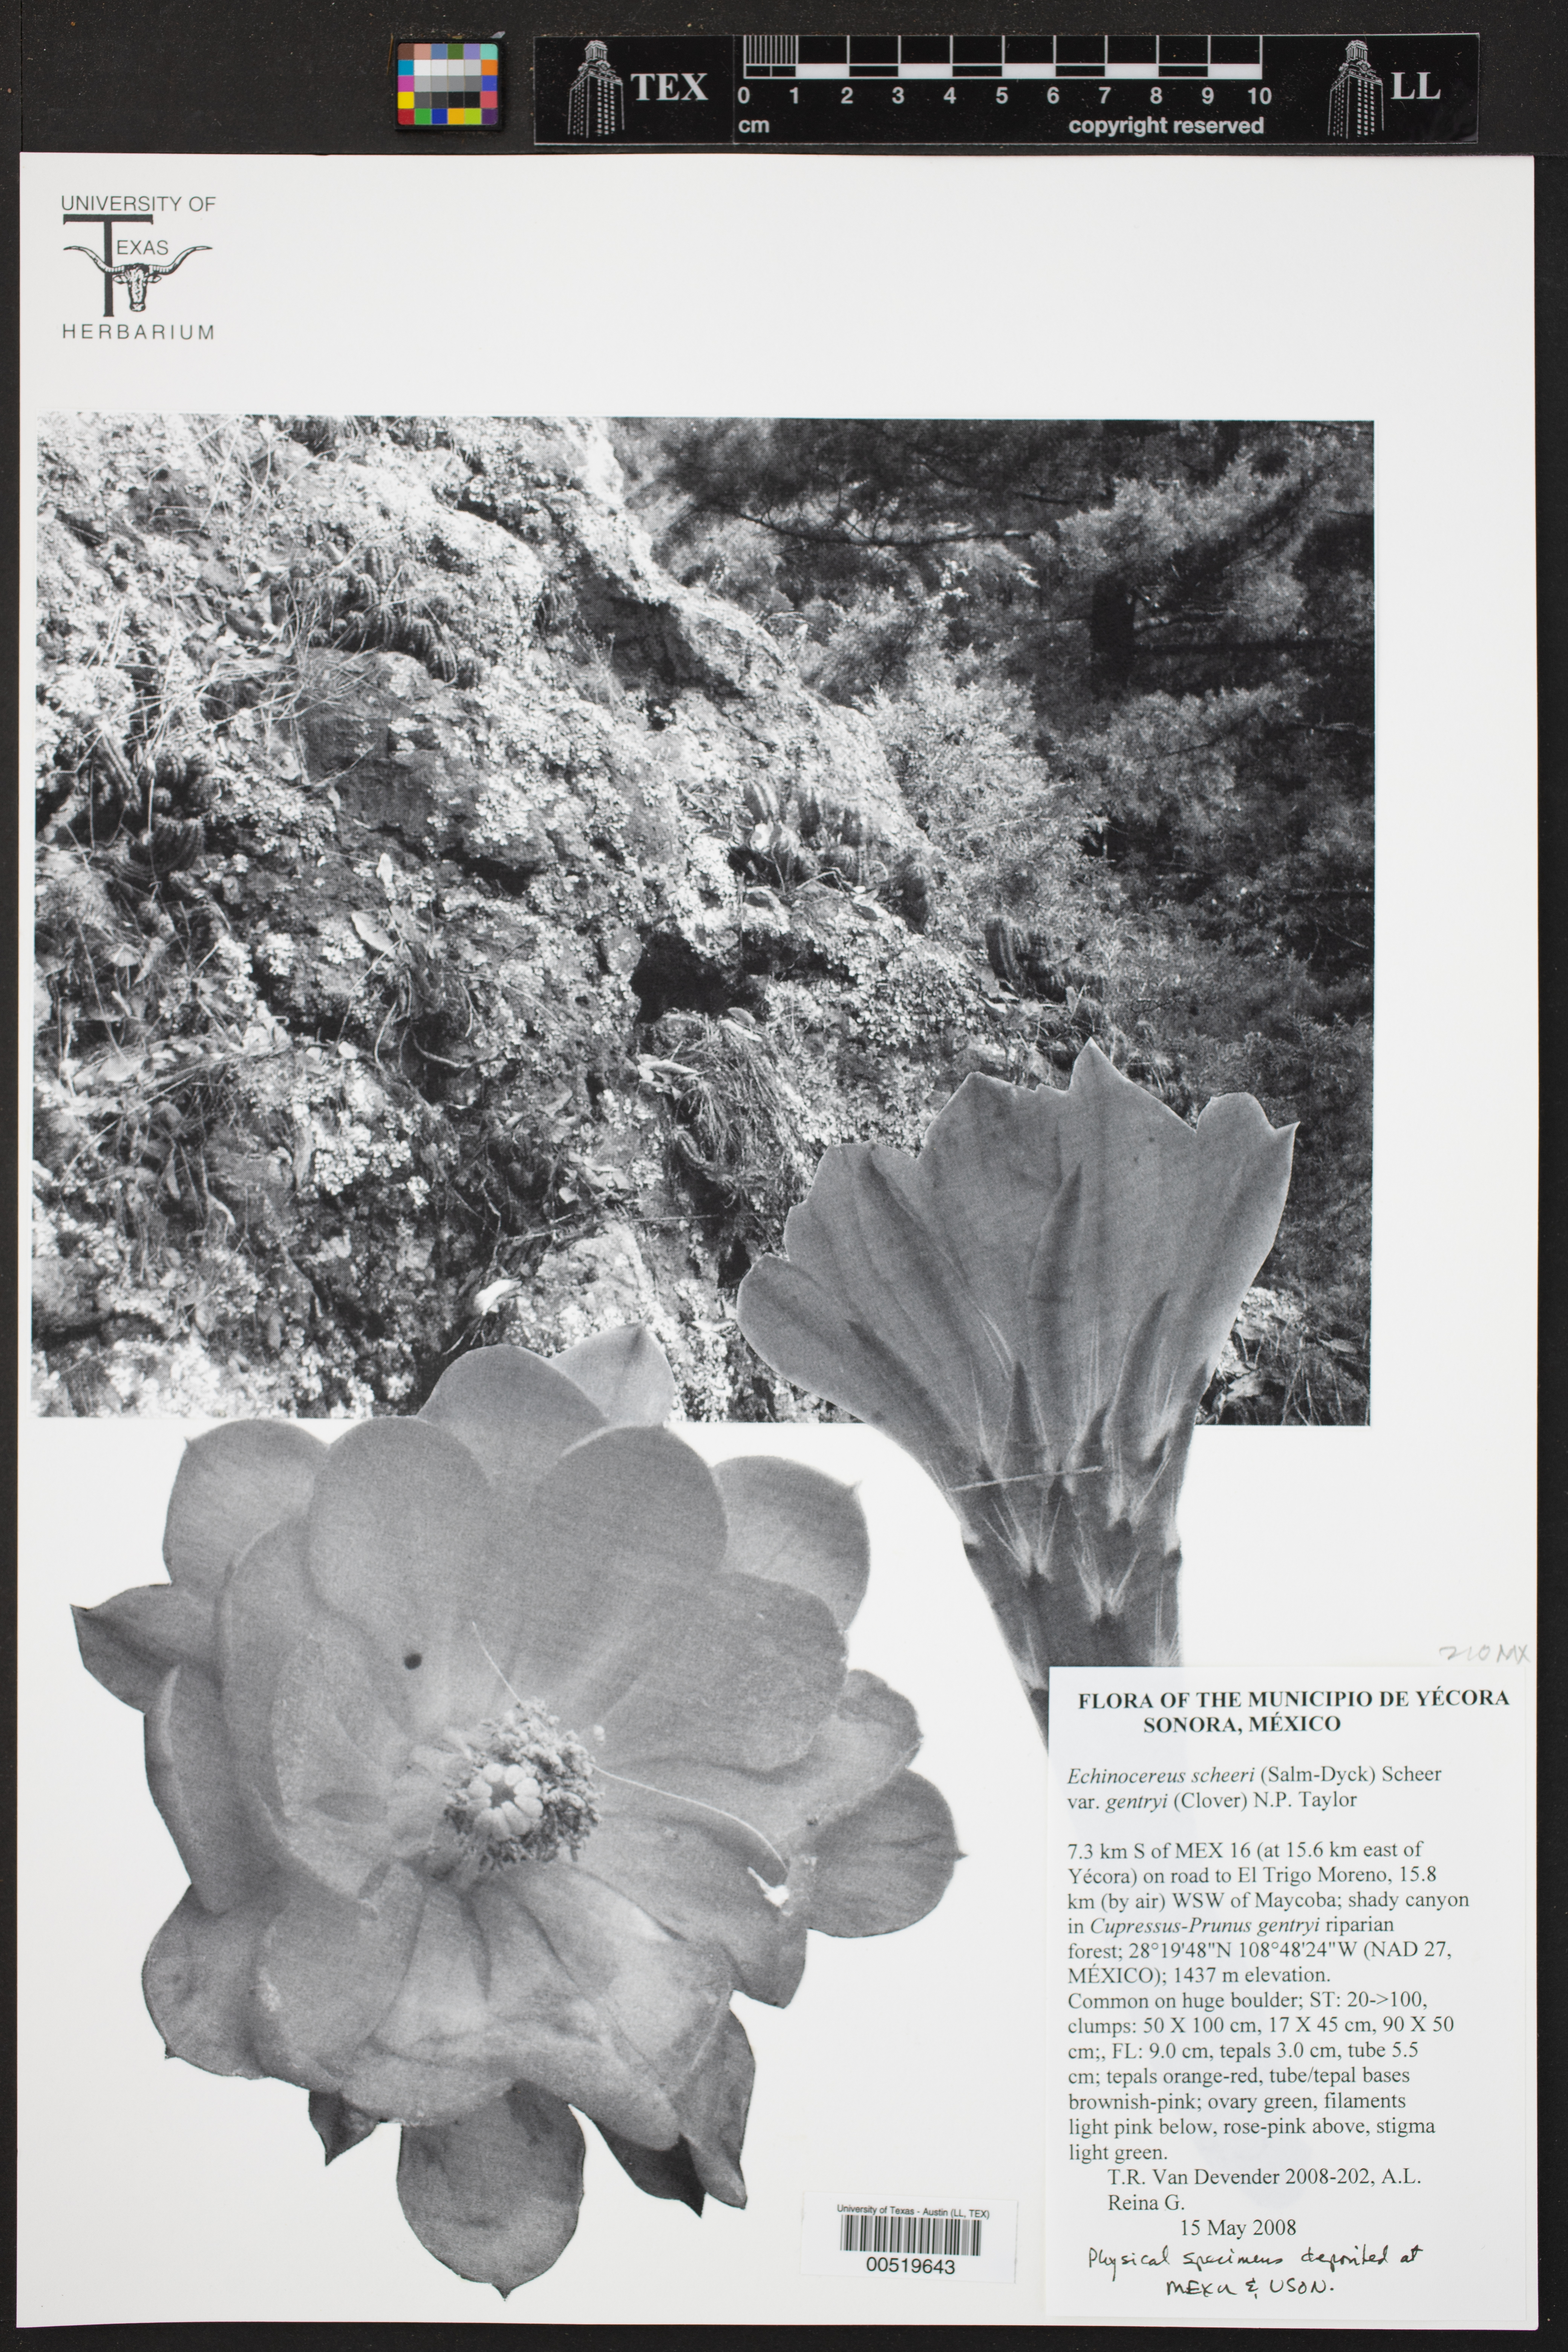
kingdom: Plantae
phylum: Tracheophyta
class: Magnoliopsida
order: Caryophyllales
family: Cactaceae
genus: Echinocereus
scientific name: Echinocereus salm-dyckianus
